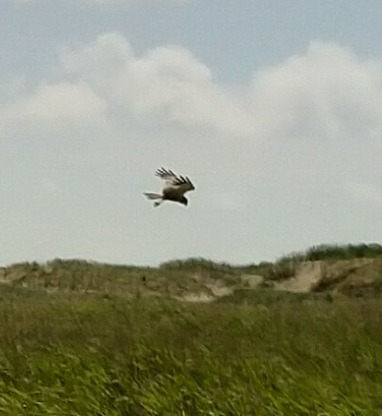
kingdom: Animalia
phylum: Chordata
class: Aves
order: Accipitriformes
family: Accipitridae
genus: Circus
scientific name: Circus aeruginosus
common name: Rørhøg
